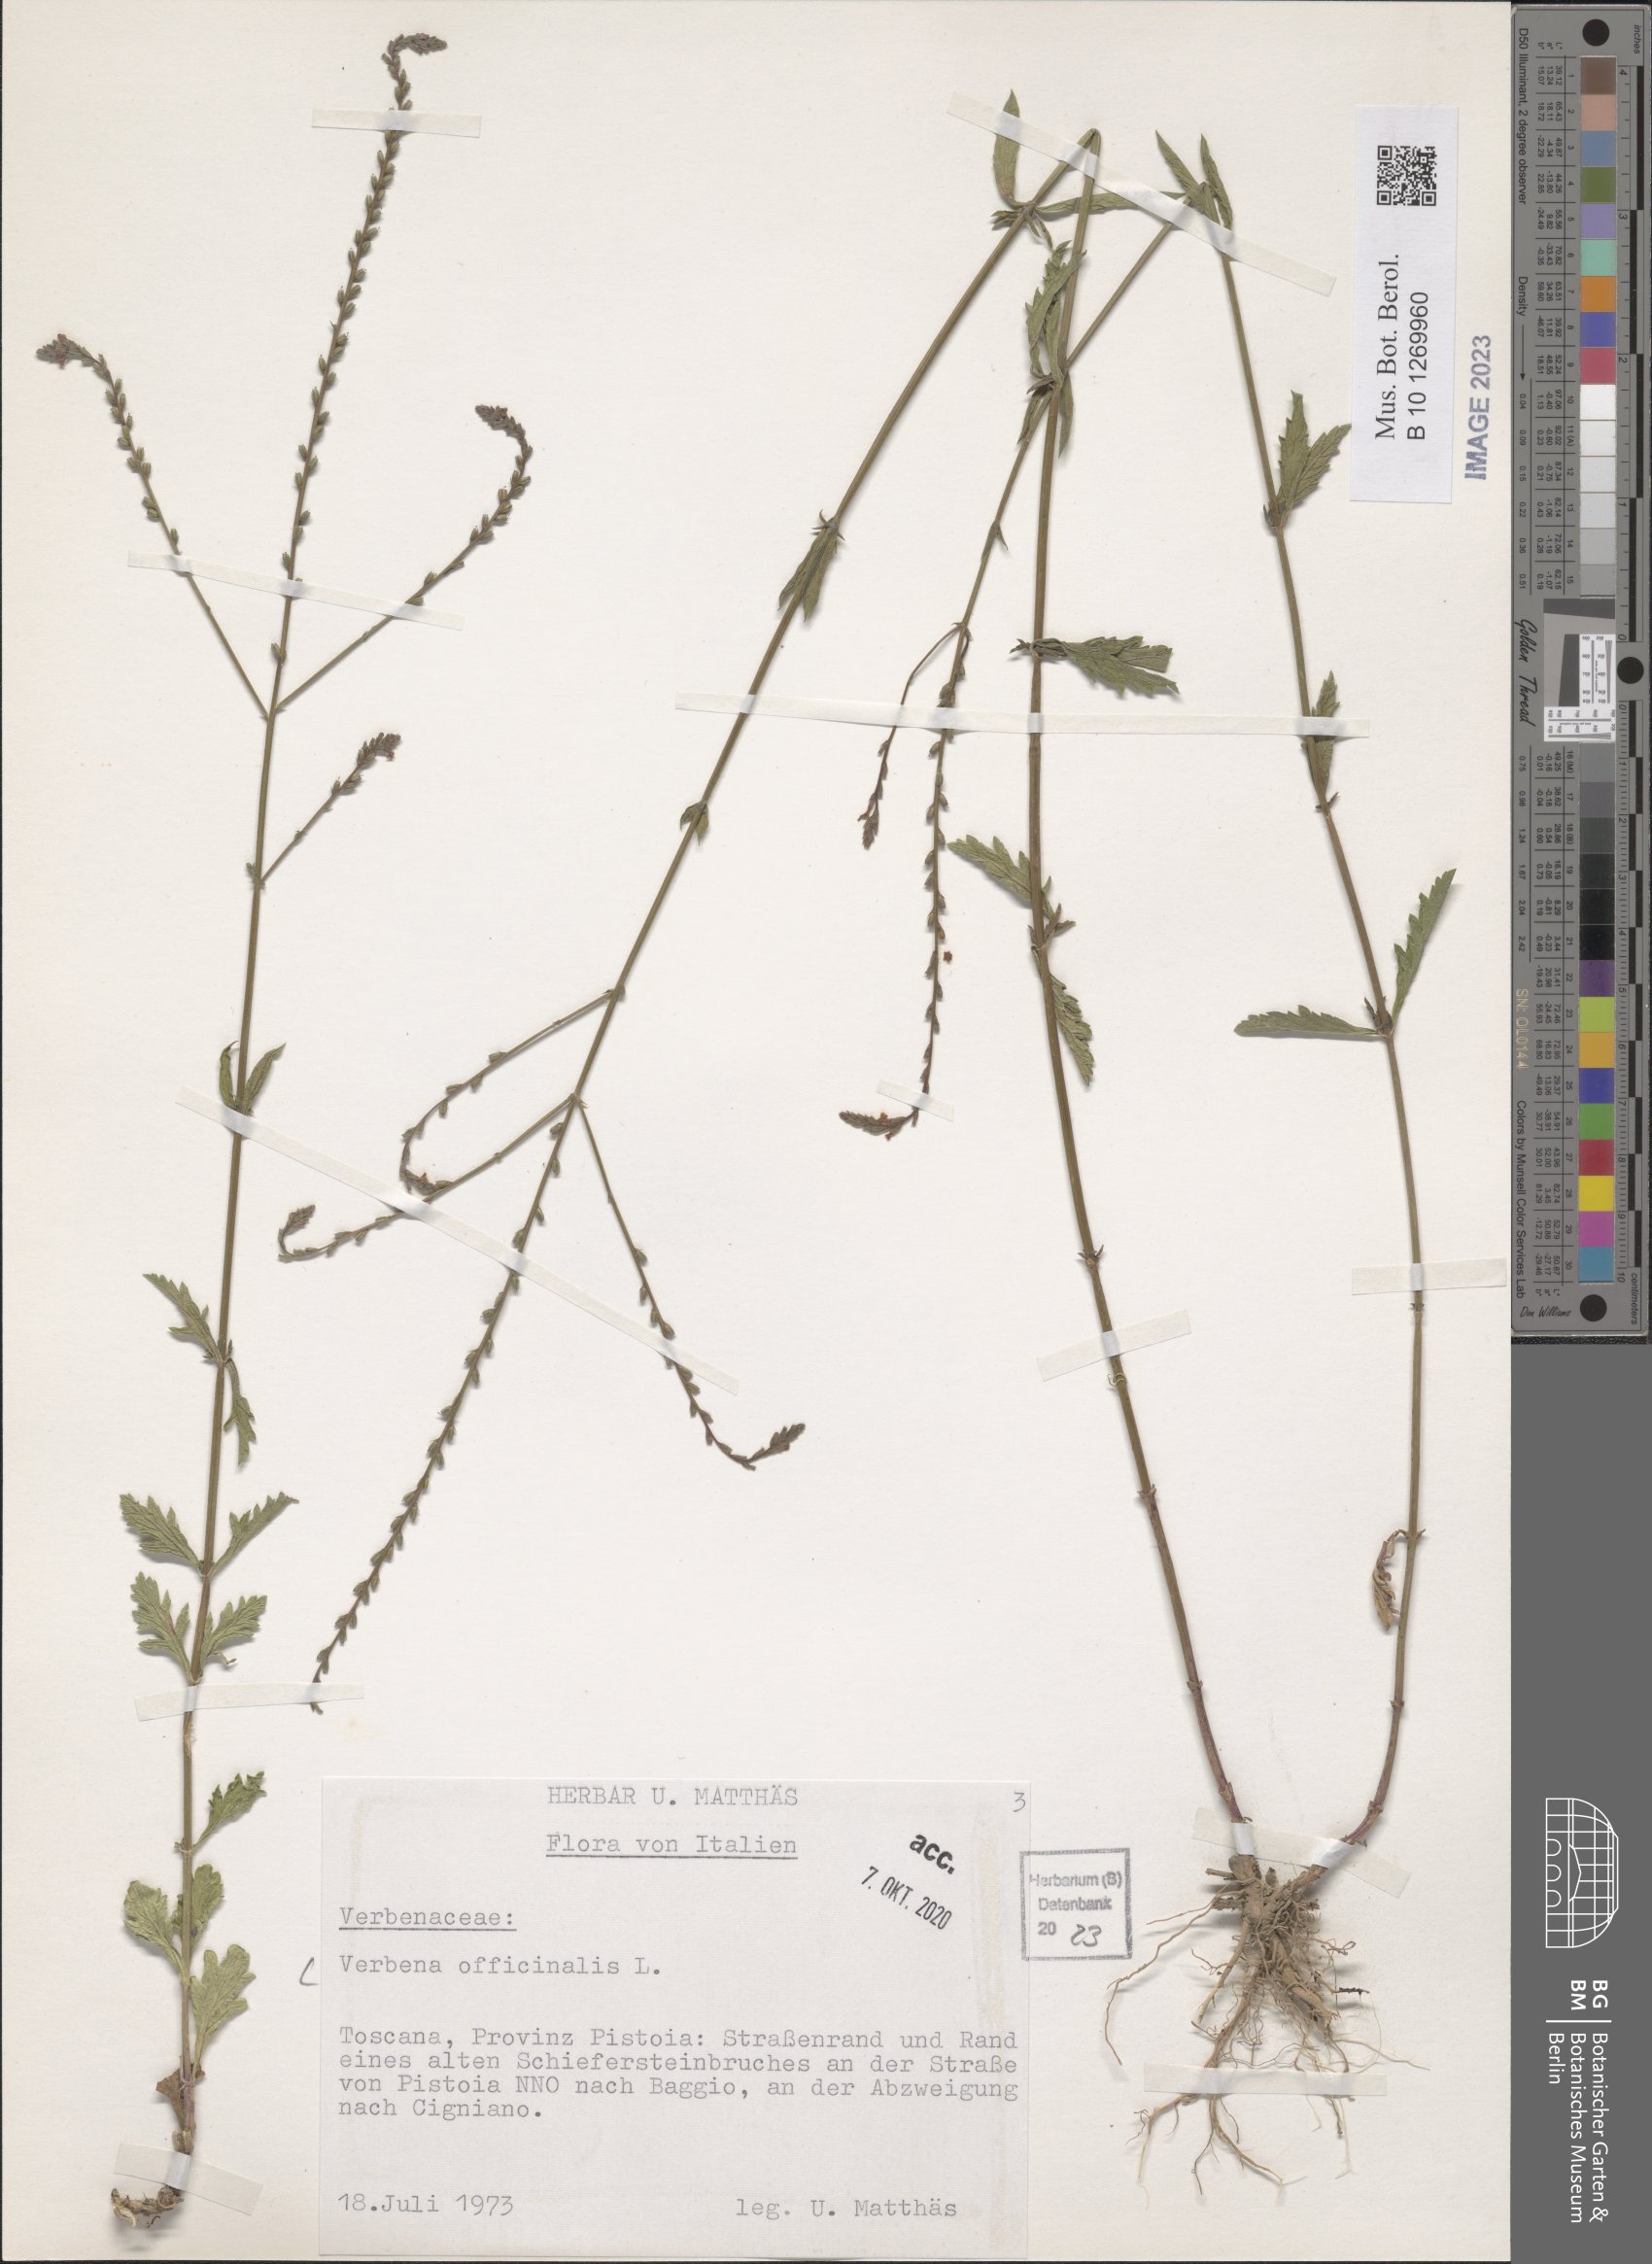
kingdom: Plantae
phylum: Tracheophyta
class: Magnoliopsida
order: Lamiales
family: Verbenaceae
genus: Verbena
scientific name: Verbena officinalis
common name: Vervain
